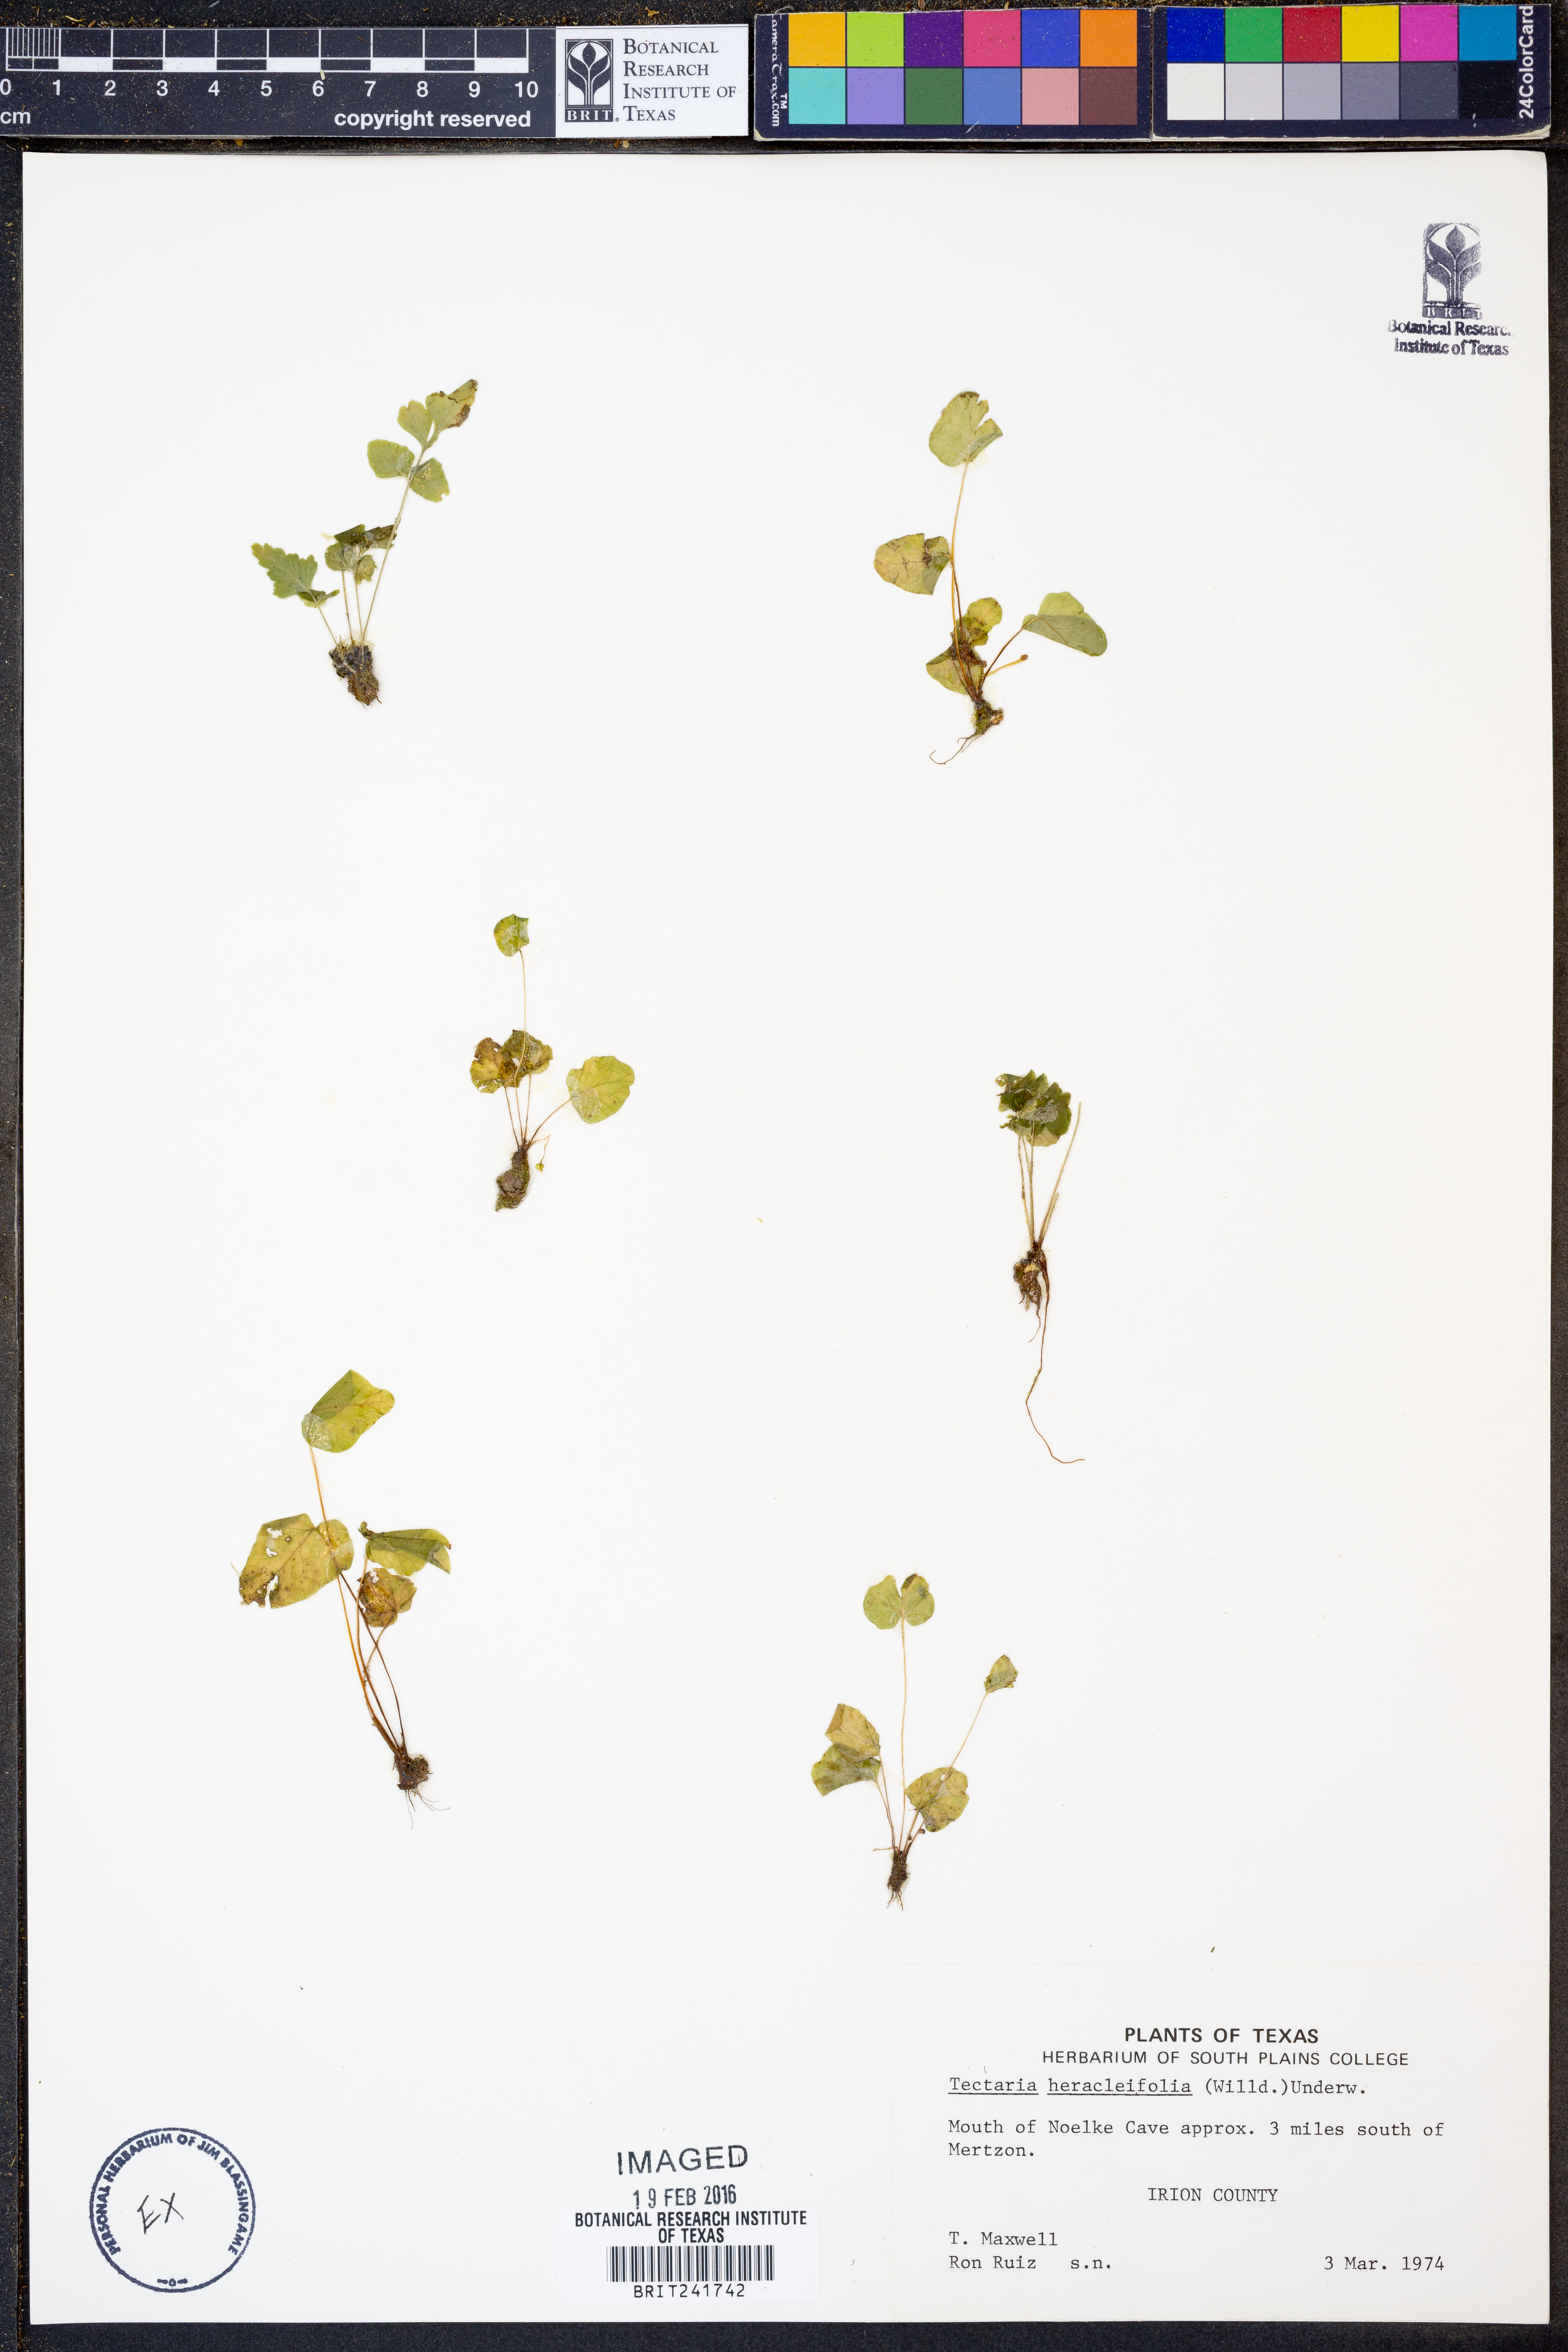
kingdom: Plantae
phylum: Tracheophyta
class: Polypodiopsida
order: Polypodiales
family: Tectariaceae
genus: Tectaria
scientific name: Tectaria heracleifolia
